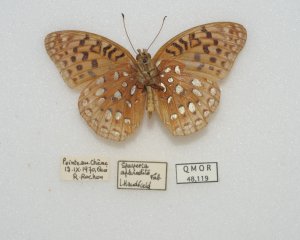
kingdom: Animalia
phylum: Arthropoda
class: Insecta
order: Lepidoptera
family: Nymphalidae
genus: Speyeria
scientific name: Speyeria aphrodite
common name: Aphrodite Fritillary
